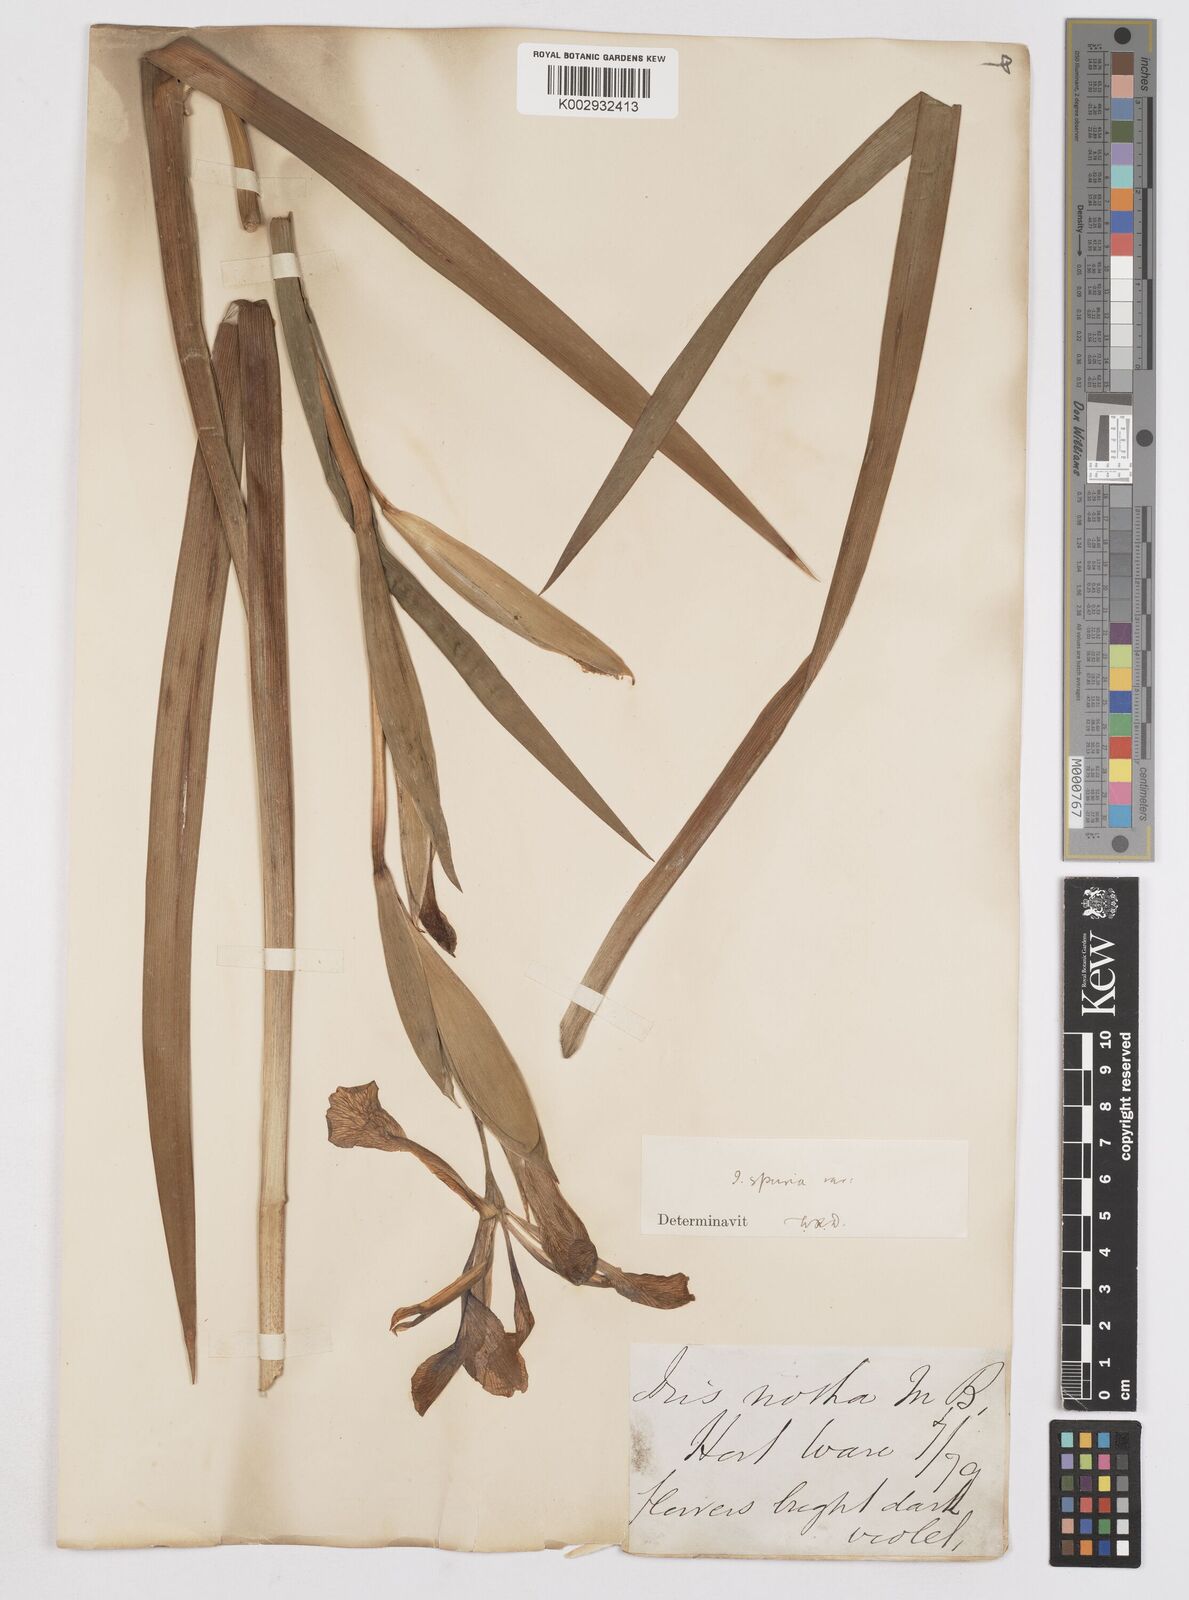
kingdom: Plantae
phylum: Tracheophyta
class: Liliopsida
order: Asparagales
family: Iridaceae
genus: Iris
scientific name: Iris spuria
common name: Blue iris
